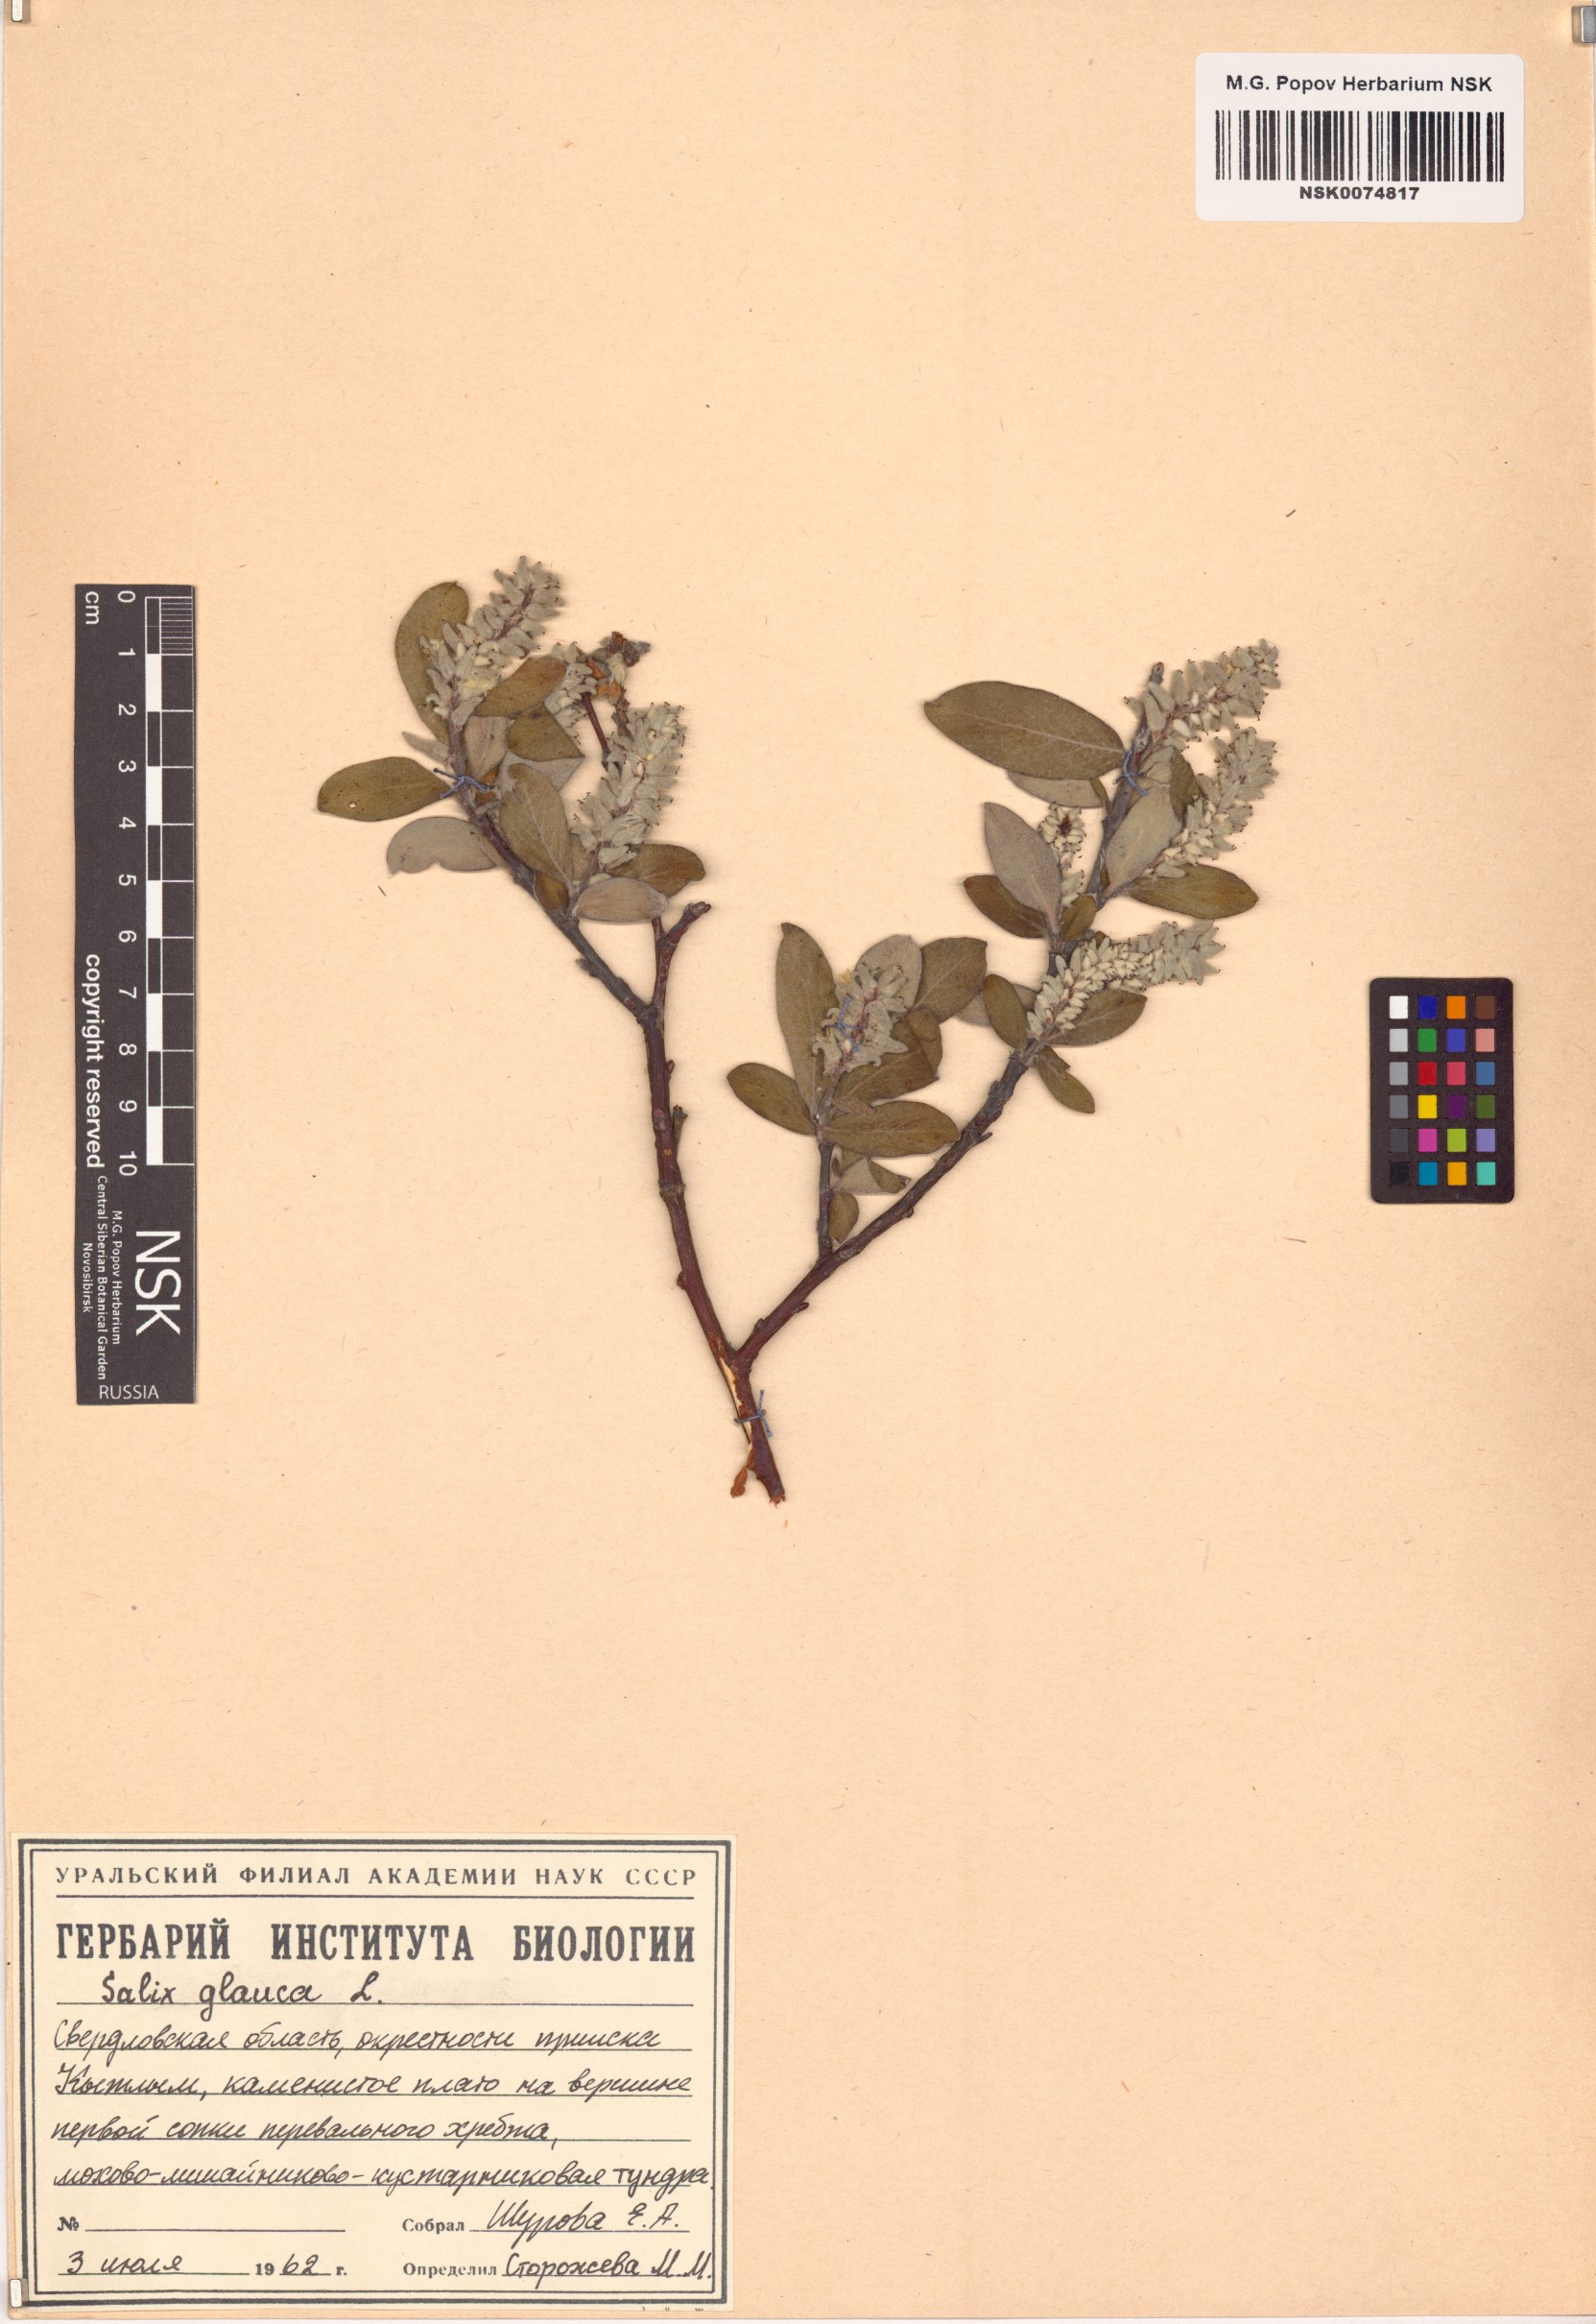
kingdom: Plantae
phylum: Tracheophyta
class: Magnoliopsida
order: Malpighiales
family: Salicaceae
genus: Salix
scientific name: Salix glauca
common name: Glaucous willow
